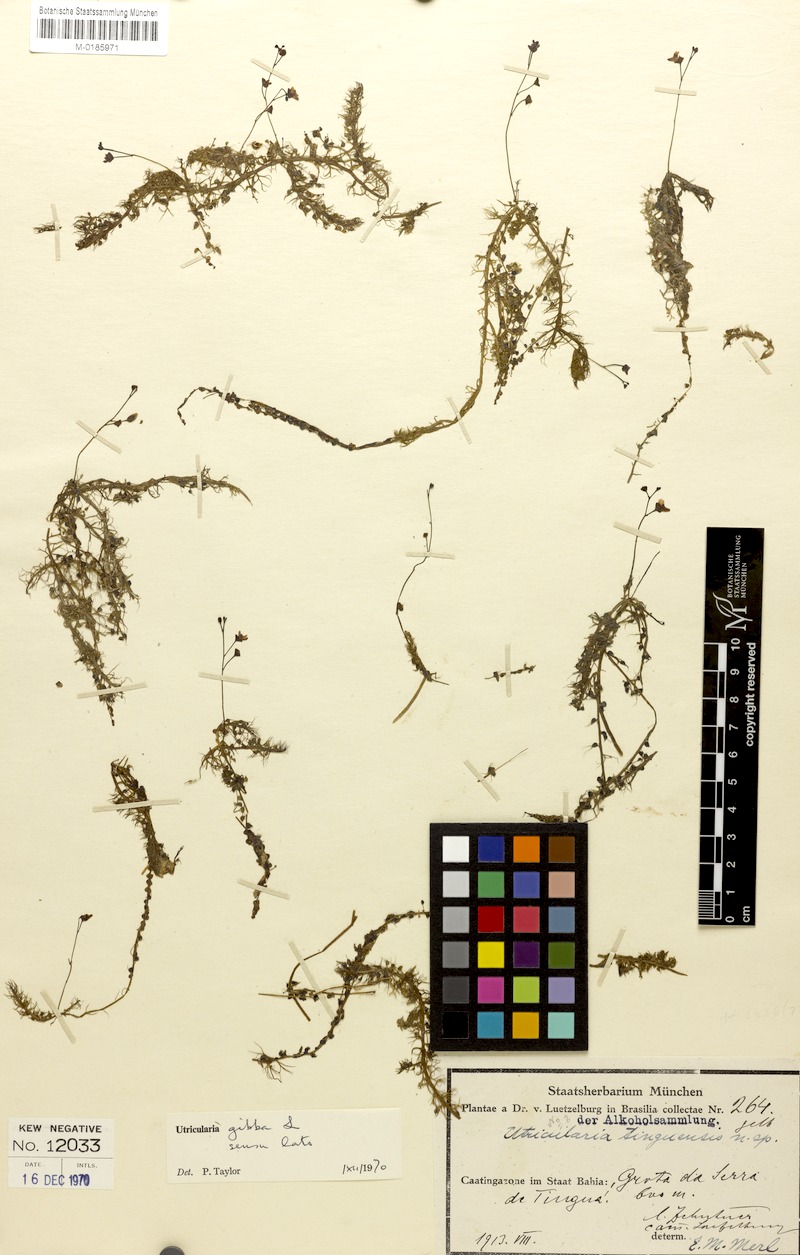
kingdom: Plantae
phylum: Tracheophyta
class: Magnoliopsida
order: Lamiales
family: Lentibulariaceae
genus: Utricularia
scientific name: Utricularia gibba
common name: Humped bladderwort
